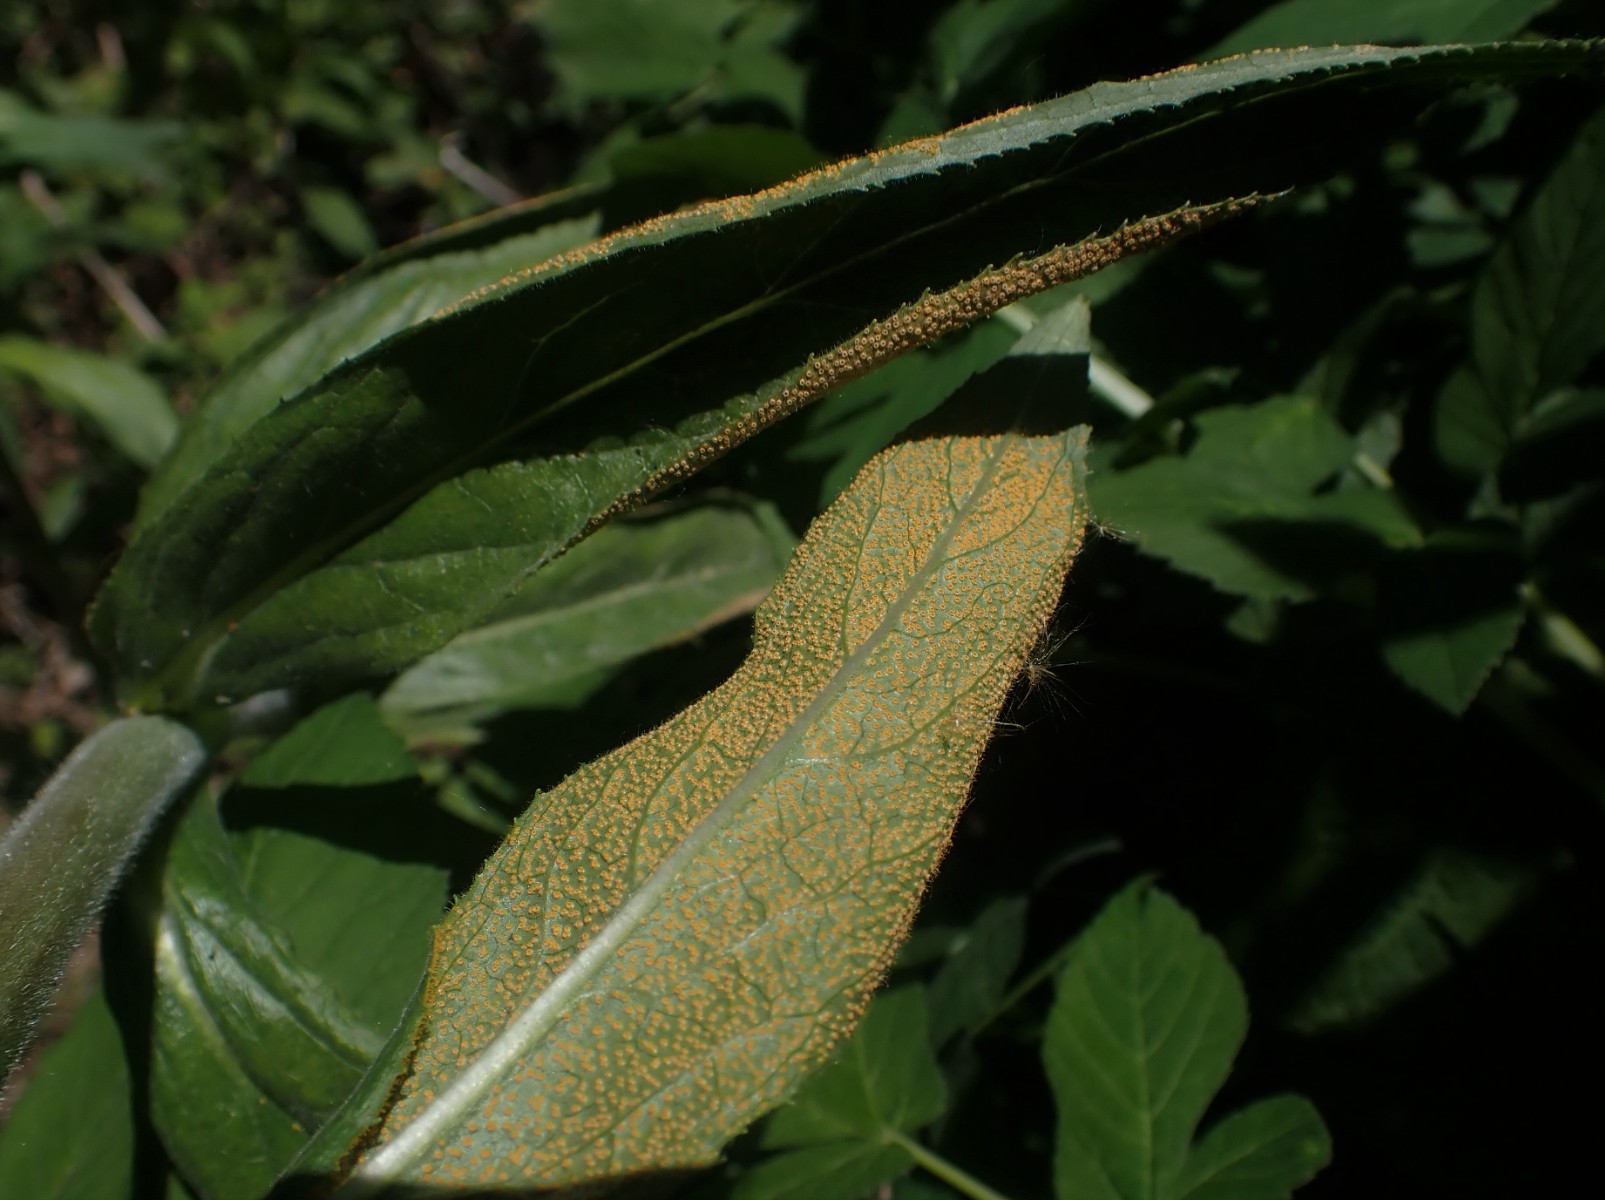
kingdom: Fungi
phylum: Basidiomycota
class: Pucciniomycetes
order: Pucciniales
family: Pucciniaceae
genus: Puccinia
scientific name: Puccinia pulverulenta
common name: dueurt-tvecellerust
